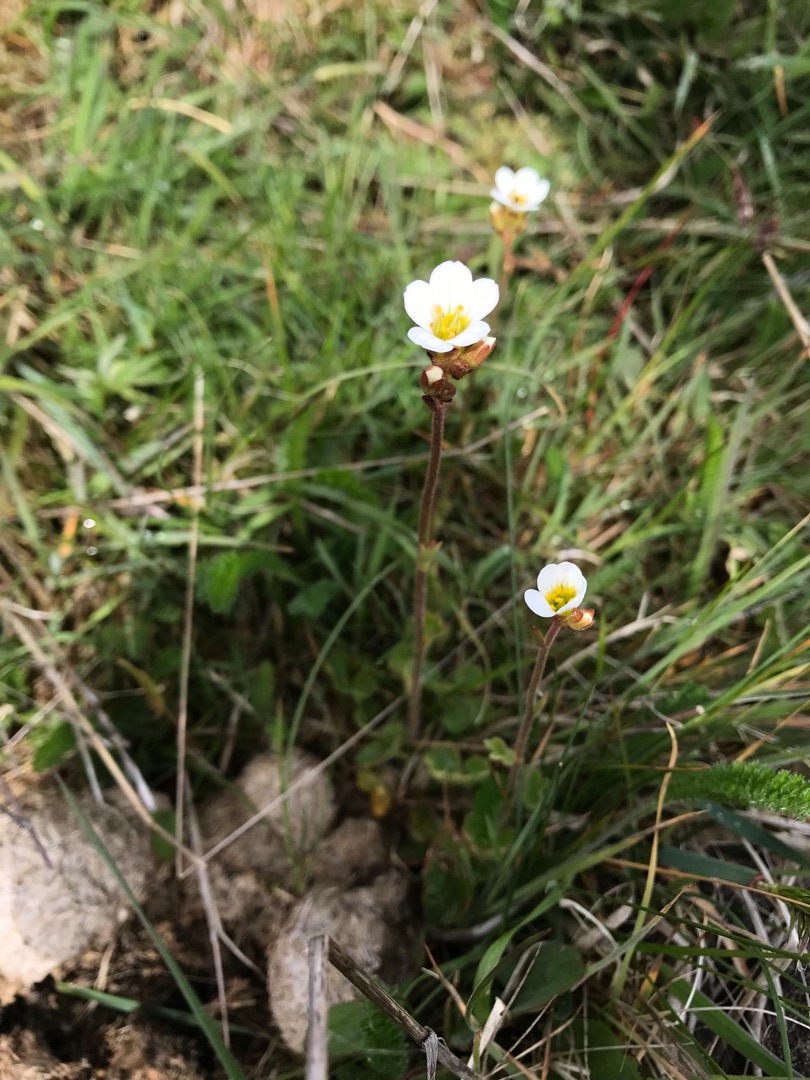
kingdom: Plantae
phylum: Tracheophyta
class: Magnoliopsida
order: Saxifragales
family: Saxifragaceae
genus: Saxifraga
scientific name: Saxifraga granulata
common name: Kornet stenbræk
